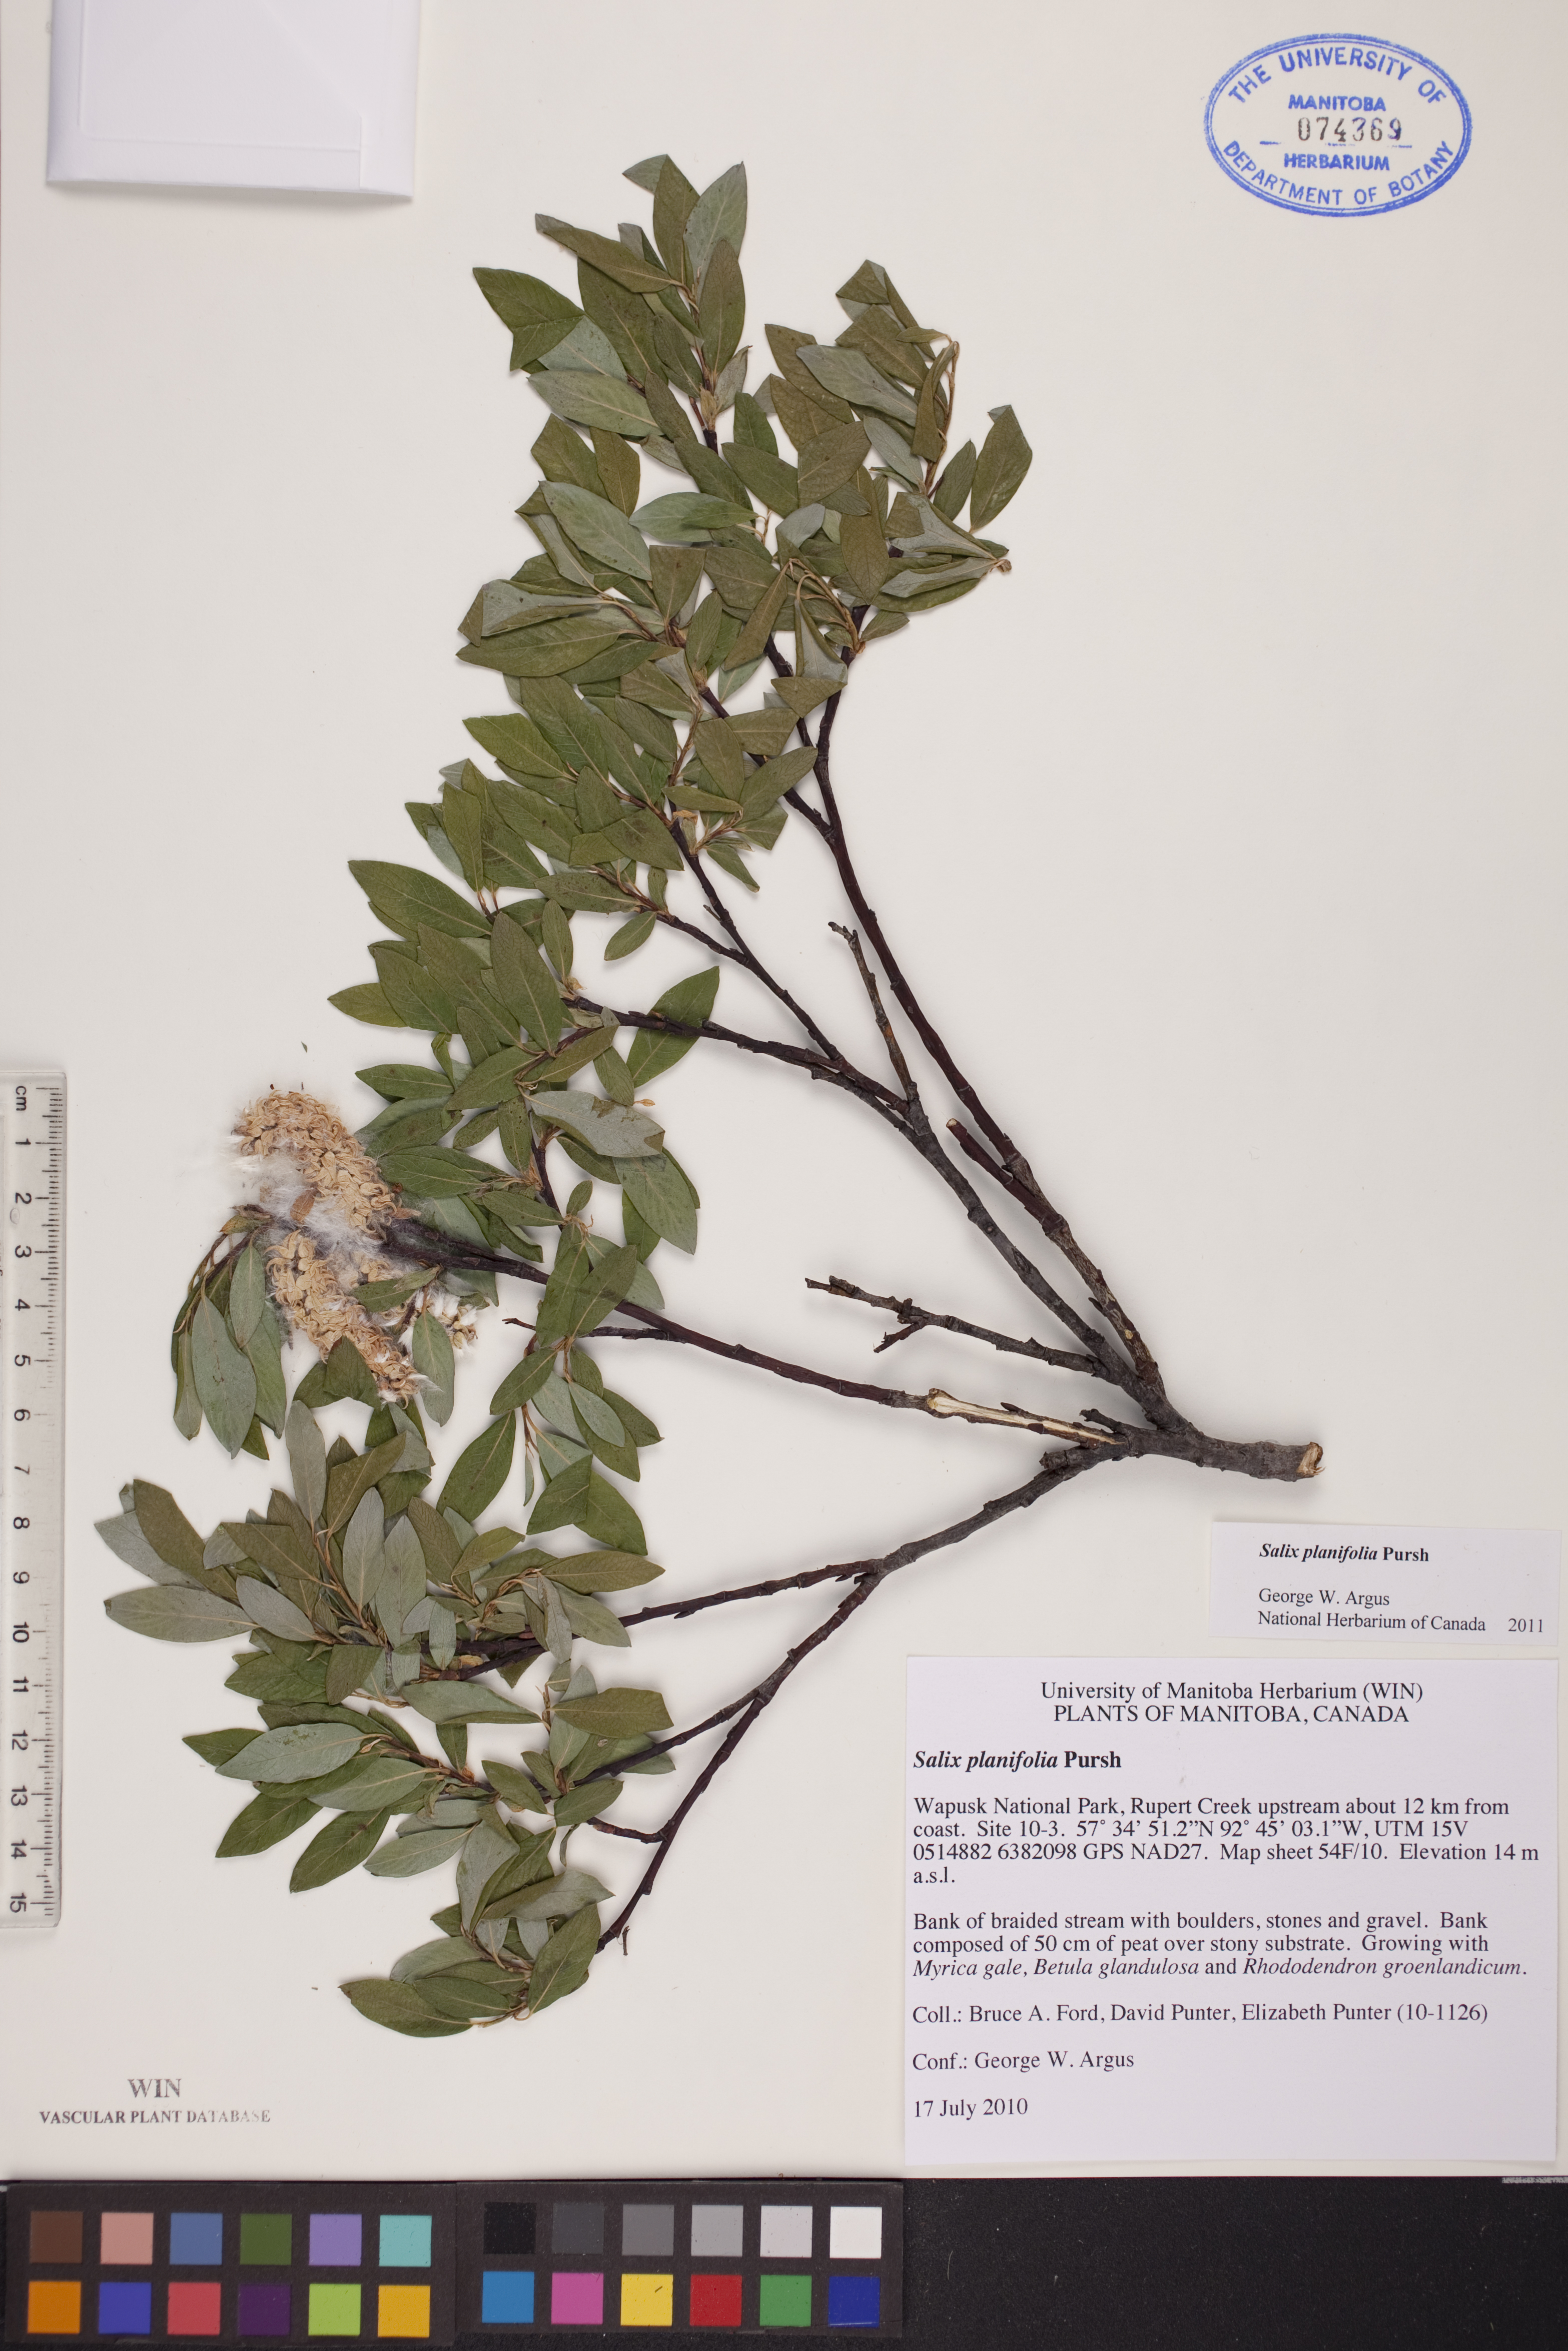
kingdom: Plantae
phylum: Tracheophyta
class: Magnoliopsida
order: Malpighiales
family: Salicaceae
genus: Salix
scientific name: Salix planifolia
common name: Mountain willow
